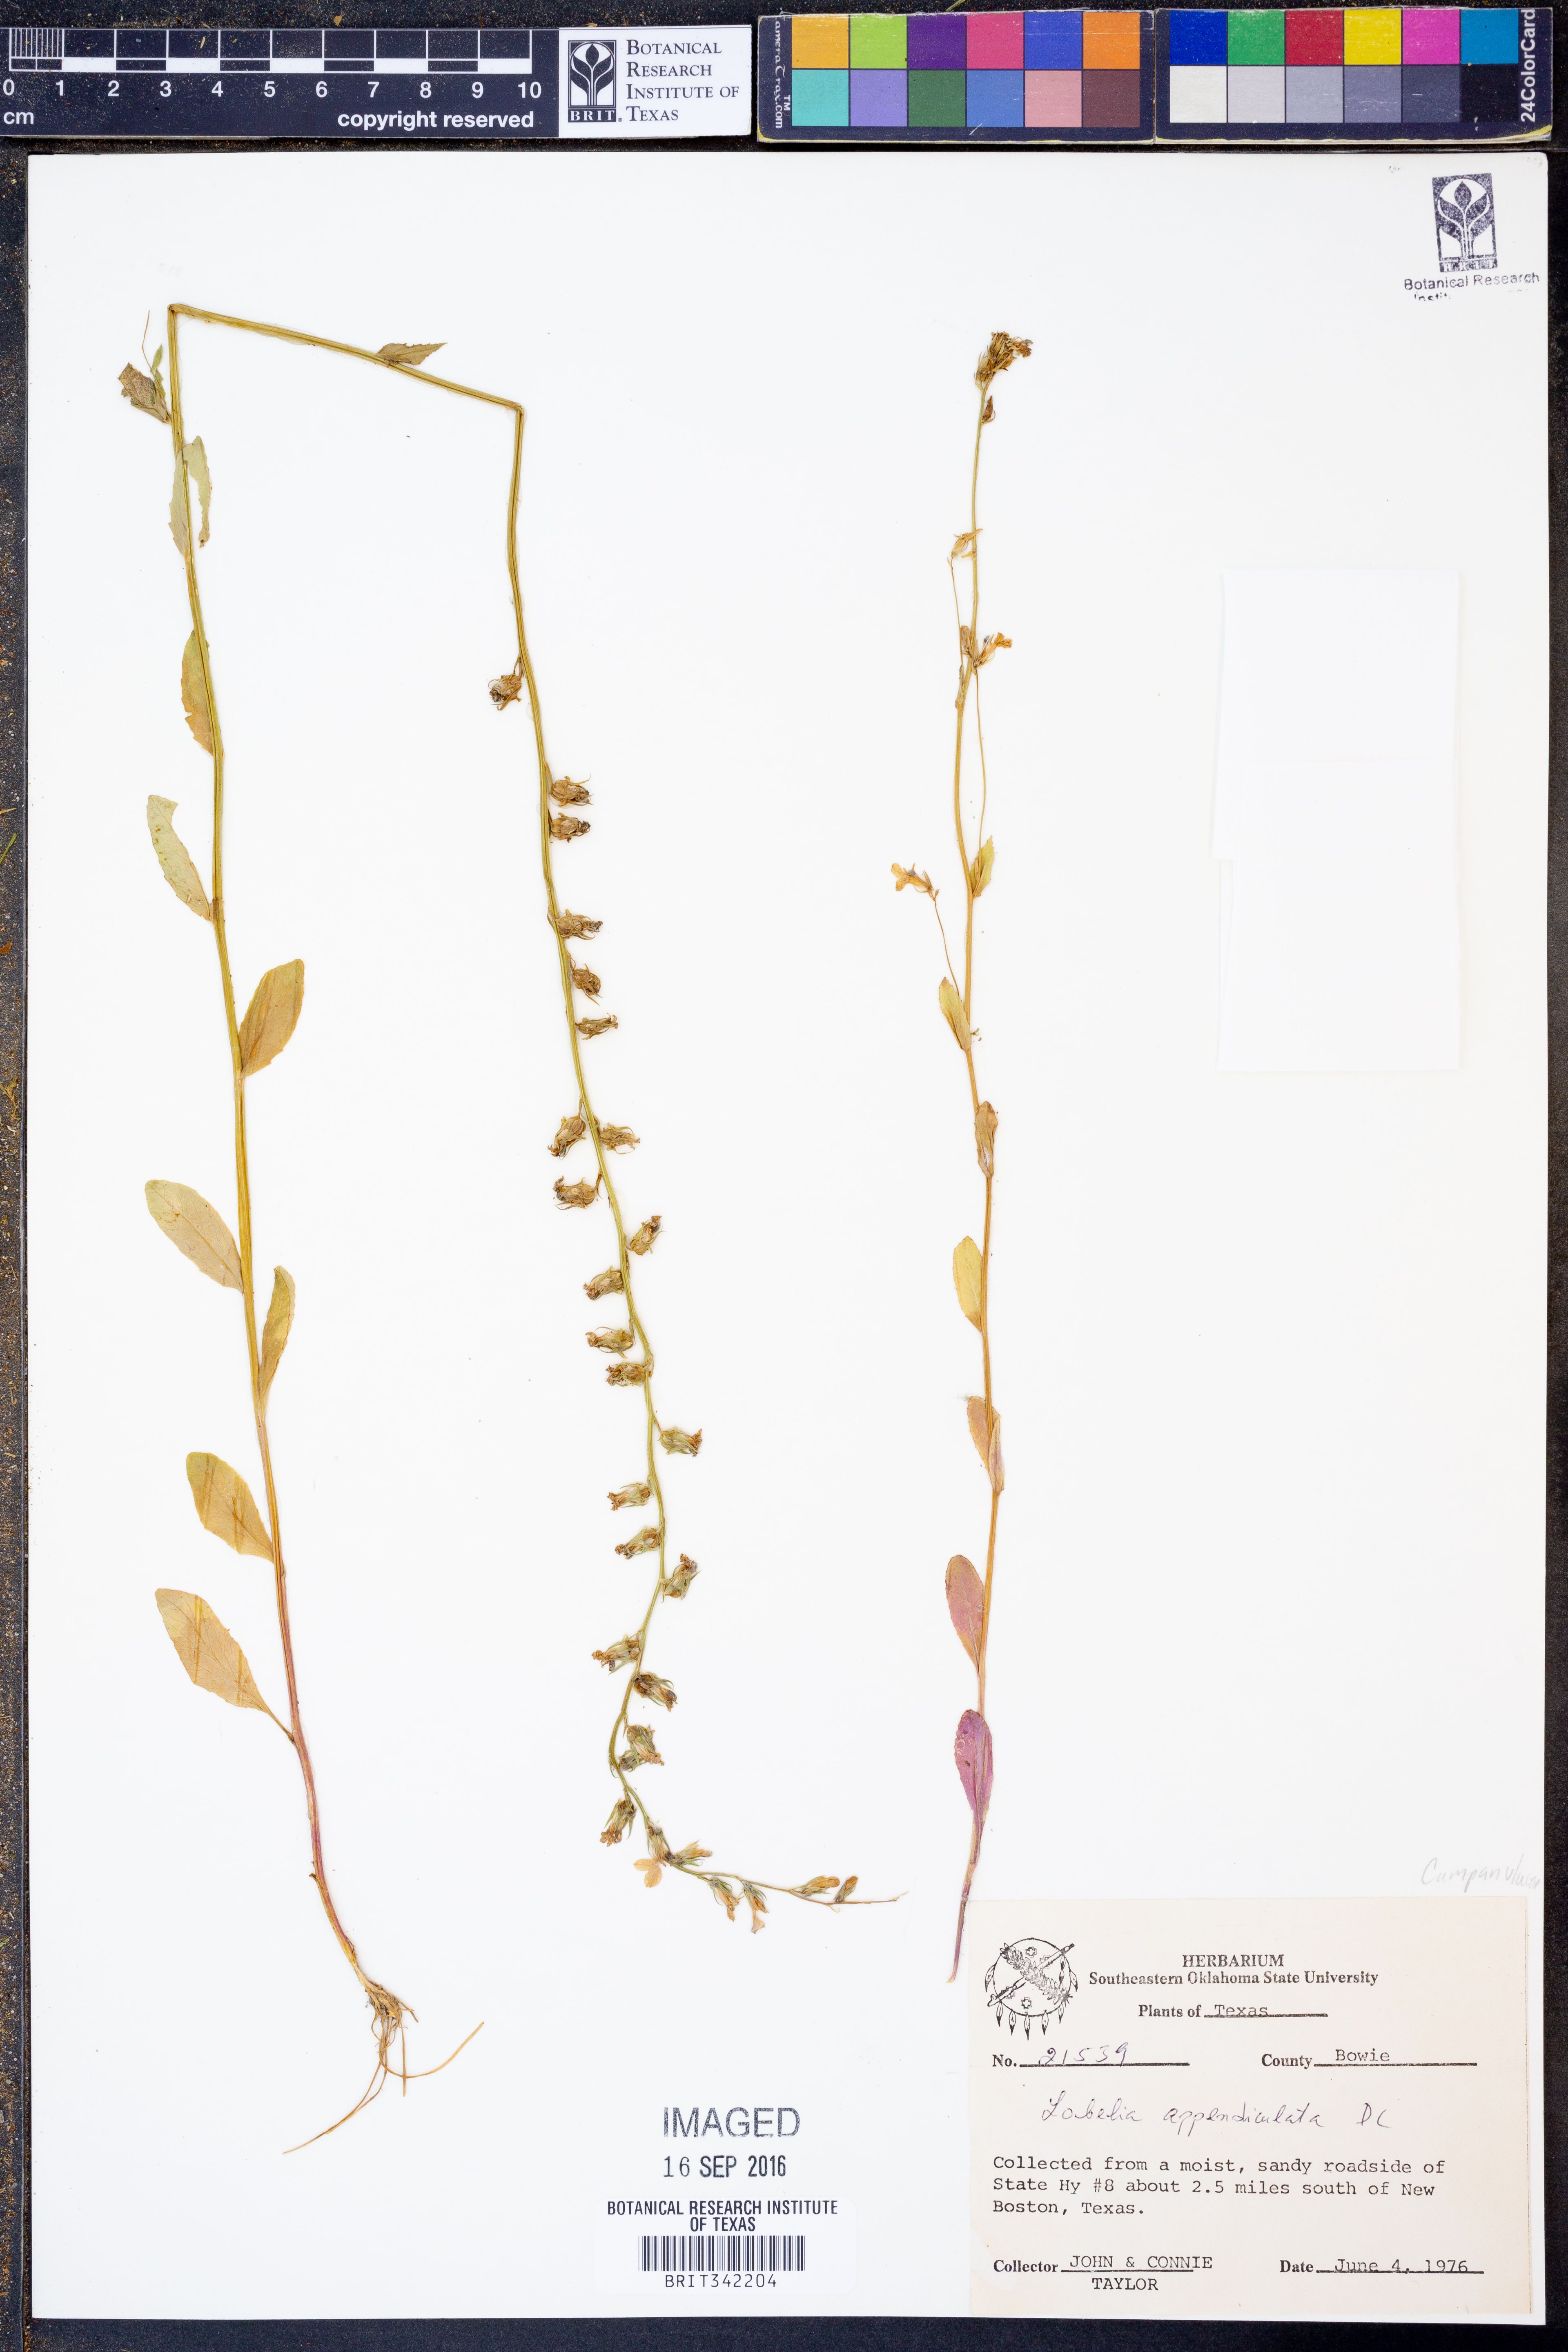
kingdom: Plantae
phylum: Tracheophyta
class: Magnoliopsida
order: Asterales
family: Campanulaceae
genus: Lobelia
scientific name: Lobelia appendiculata
